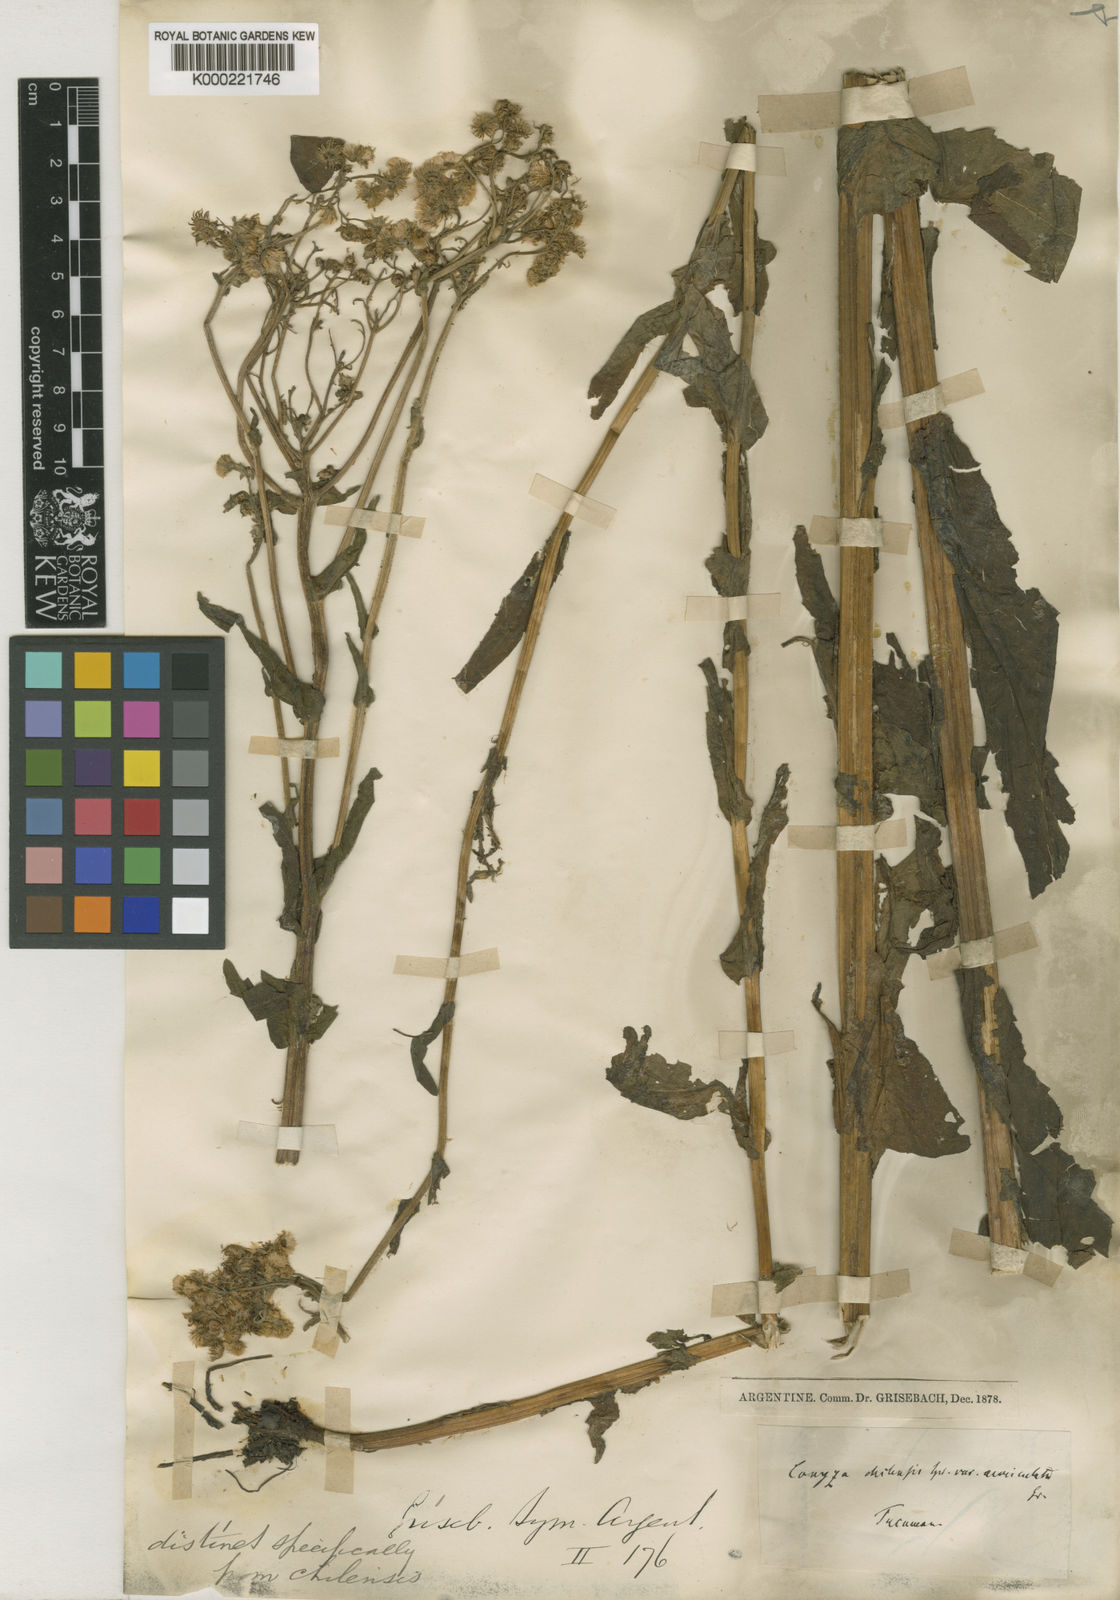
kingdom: Plantae
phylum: Tracheophyta
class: Magnoliopsida
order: Asterales
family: Asteraceae
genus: Erigeron
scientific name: Erigeron cordatus
